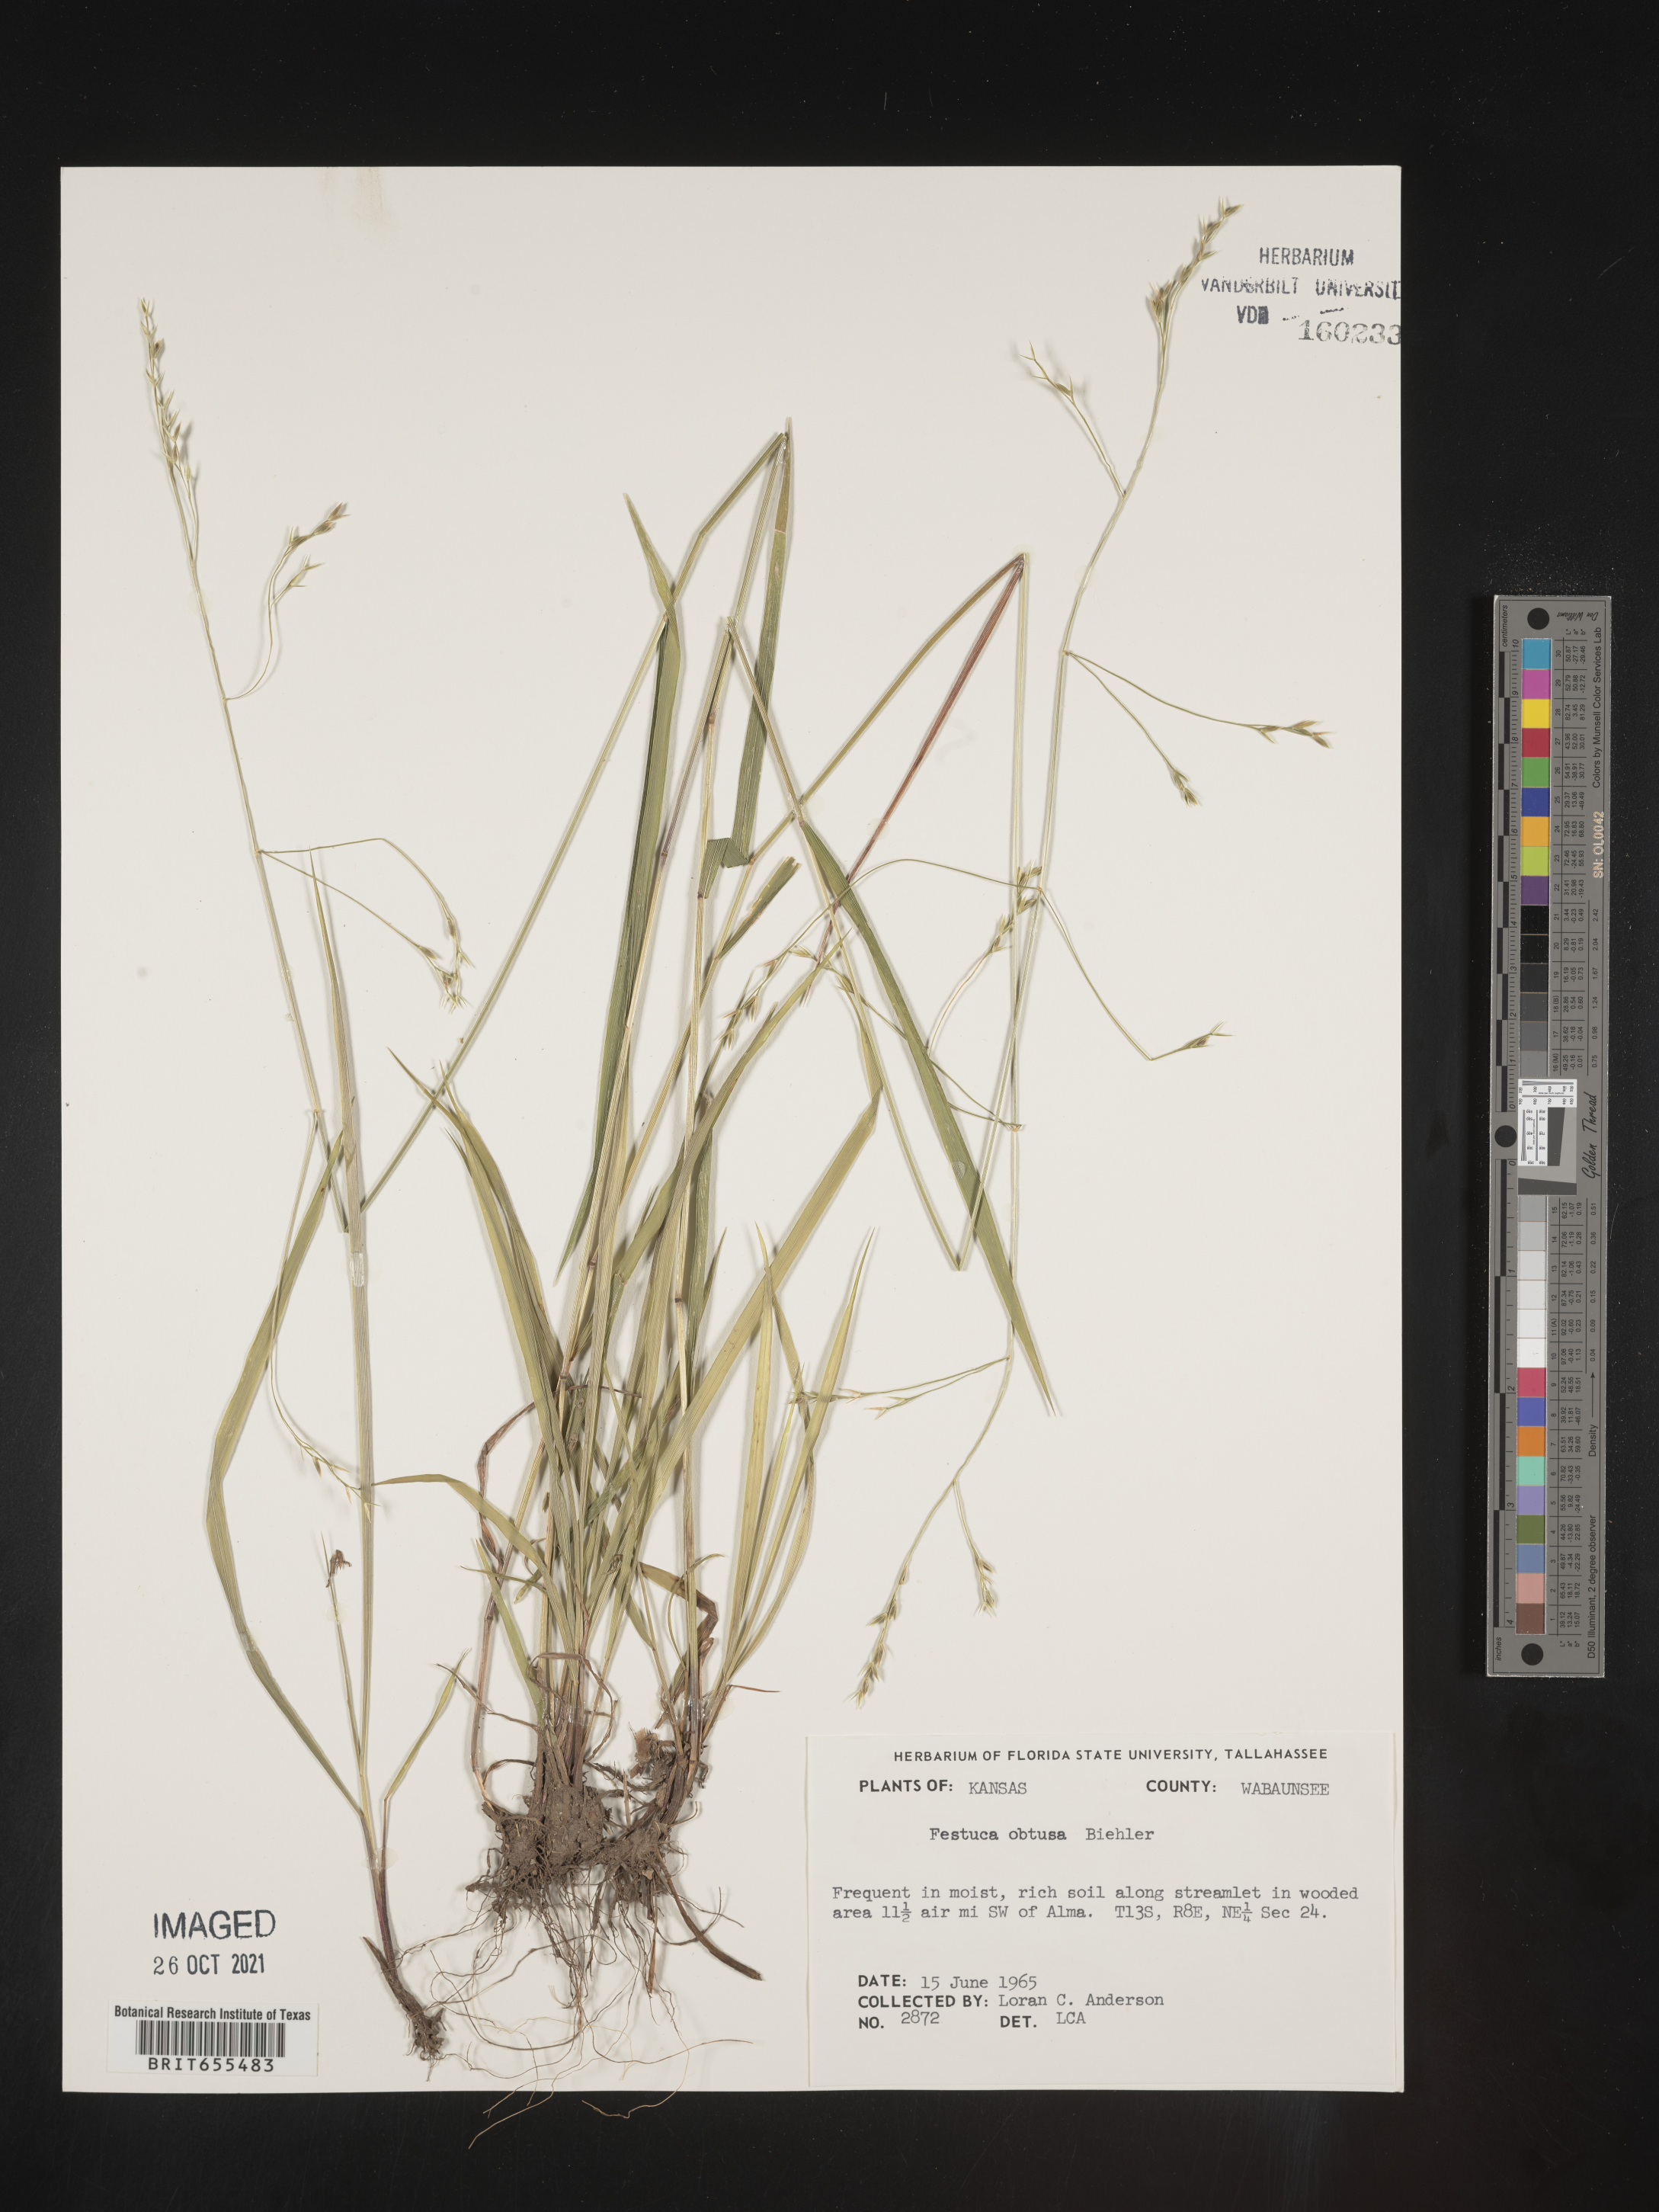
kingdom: Plantae
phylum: Tracheophyta
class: Liliopsida
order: Poales
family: Poaceae
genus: Festuca
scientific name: Festuca
